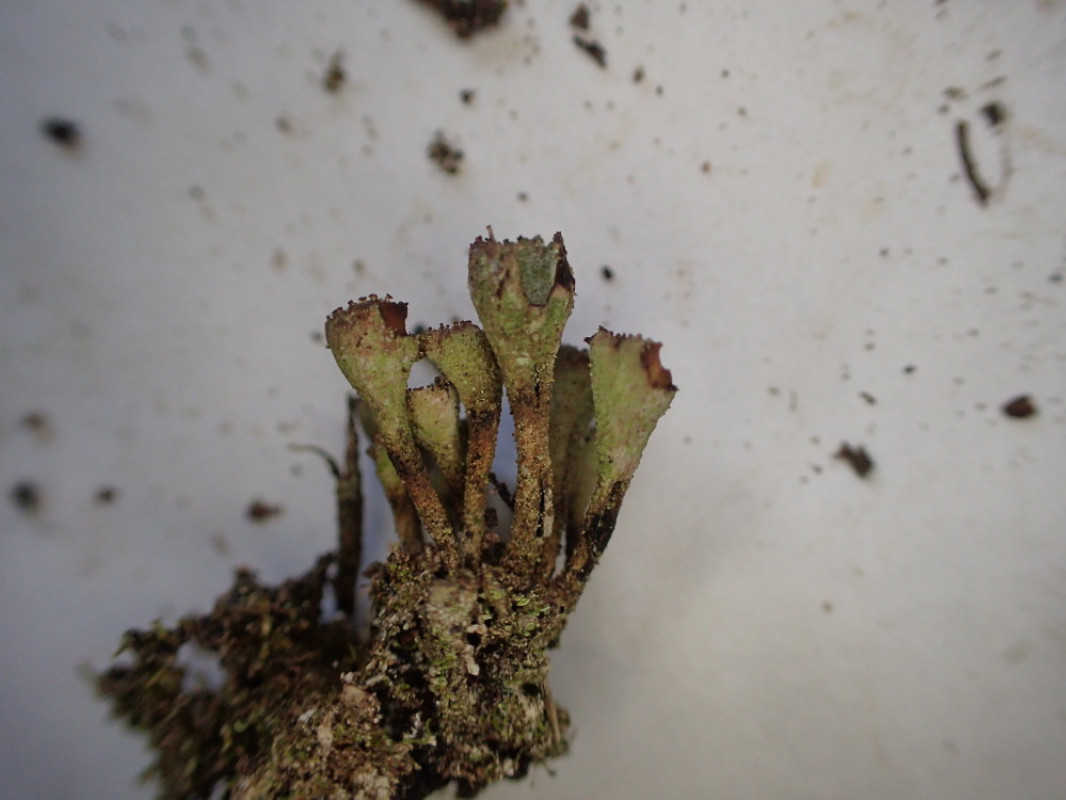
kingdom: Fungi
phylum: Ascomycota
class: Lecanoromycetes
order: Lecanorales
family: Cladoniaceae
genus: Cladonia
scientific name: Cladonia novochlorophaea
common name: sortbrun bægerlav
